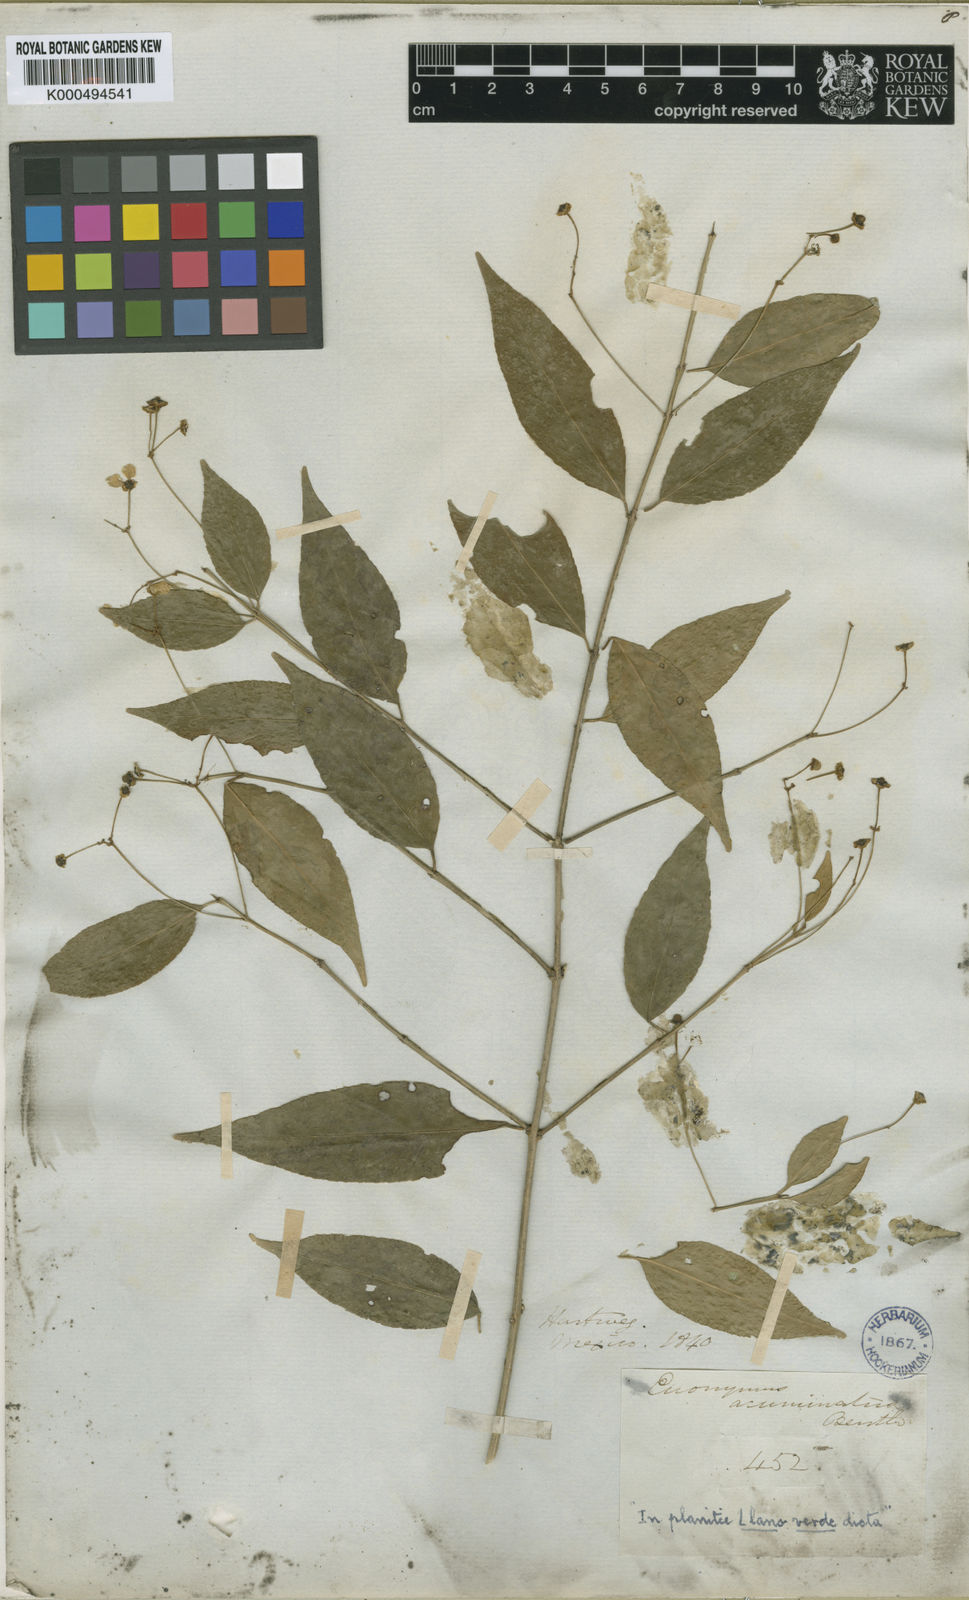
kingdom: Plantae
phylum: Tracheophyta
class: Magnoliopsida
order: Celastrales
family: Celastraceae
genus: Euonymus
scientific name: Euonymus benthamii
